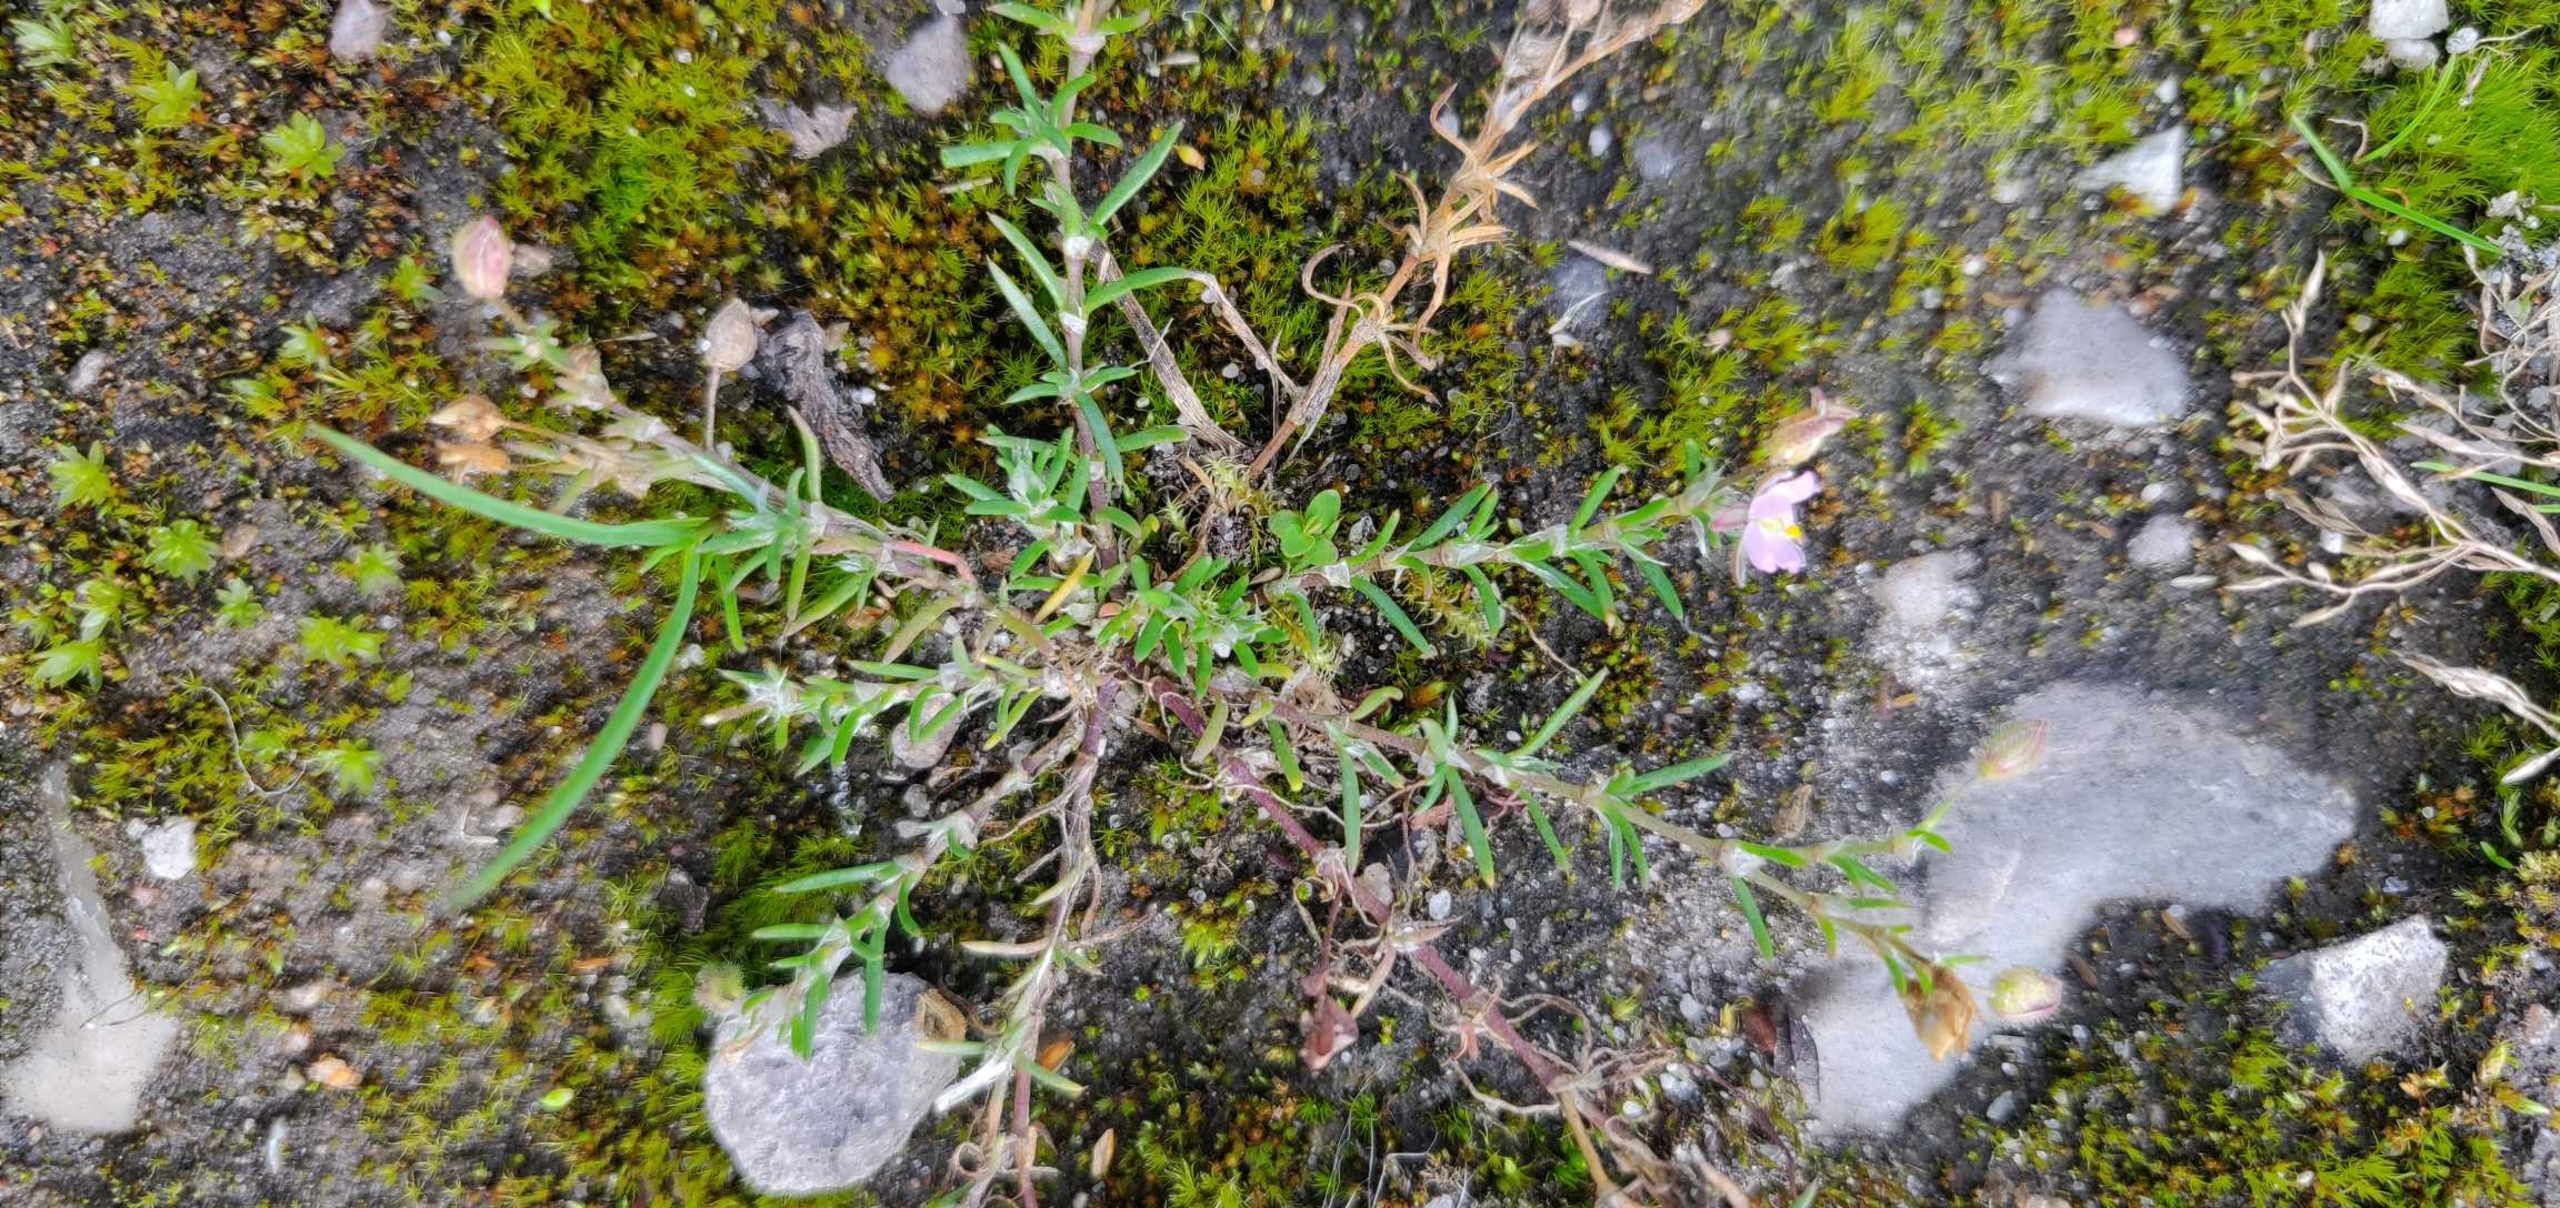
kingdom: Plantae
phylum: Tracheophyta
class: Magnoliopsida
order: Caryophyllales
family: Caryophyllaceae
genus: Spergularia
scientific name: Spergularia rubra
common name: Mark-hindeknæ
